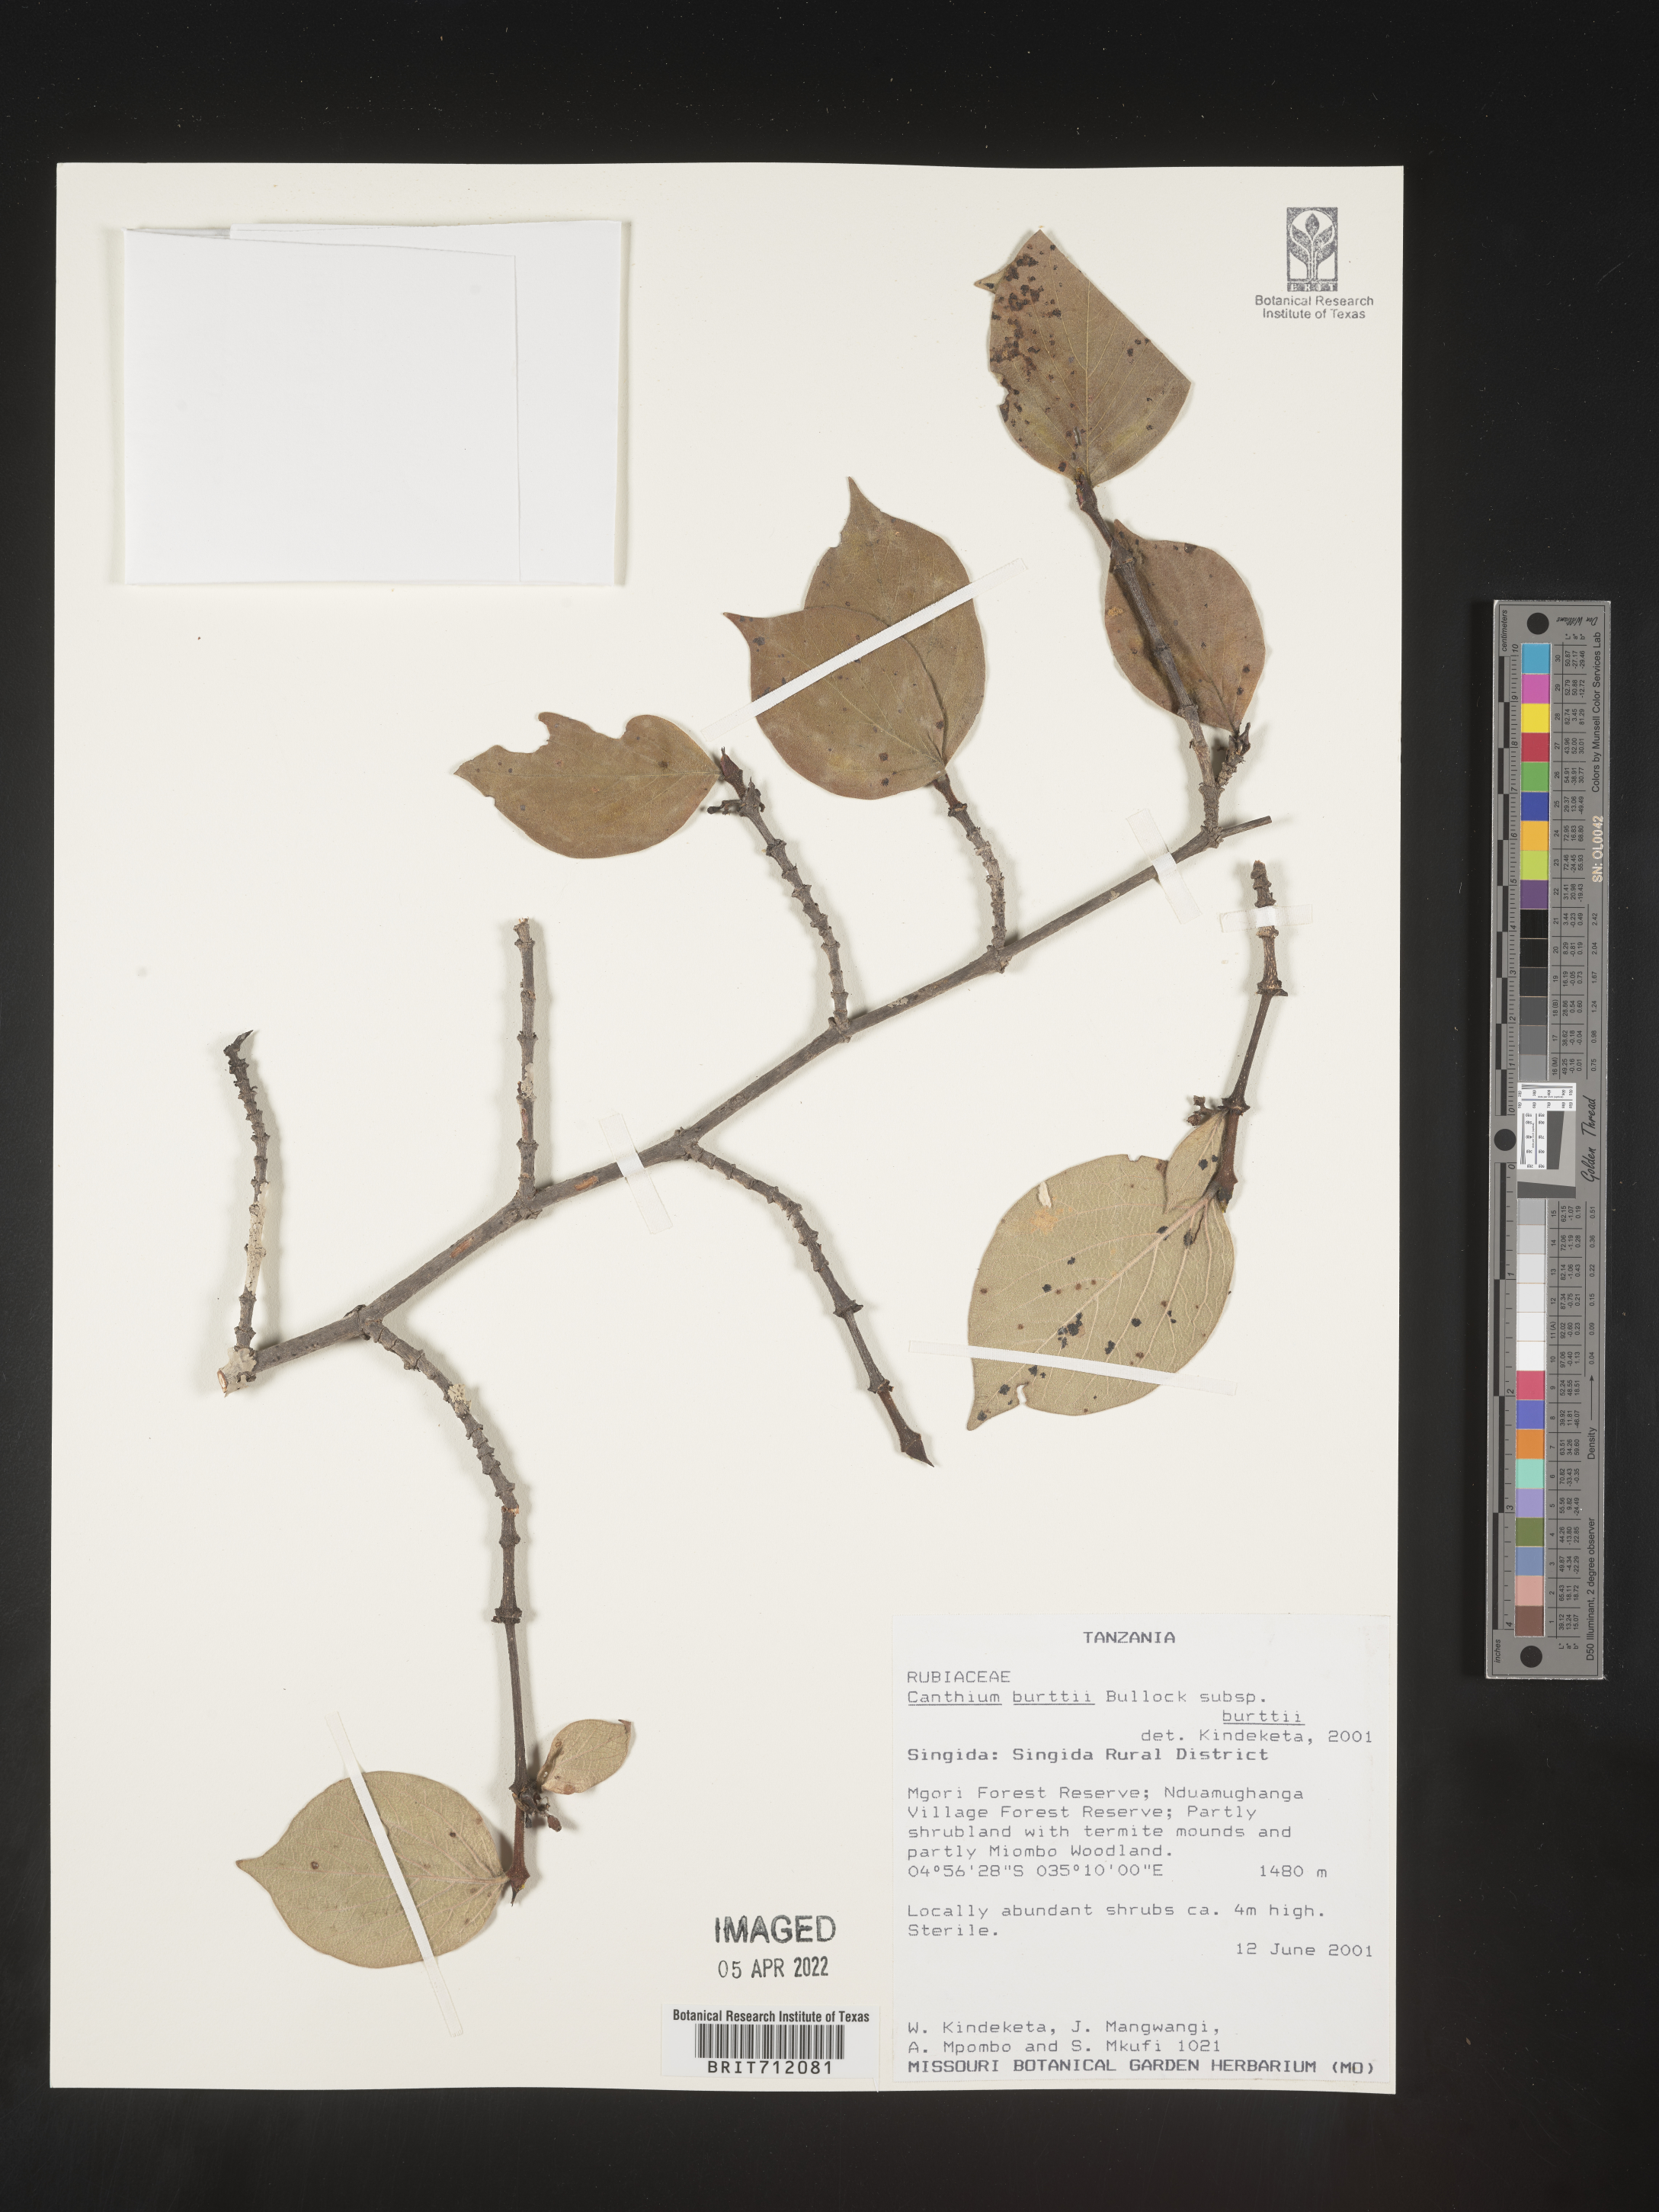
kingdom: Plantae
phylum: Tracheophyta
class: Magnoliopsida
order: Gentianales
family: Rubiaceae
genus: Canthium
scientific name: Canthium
